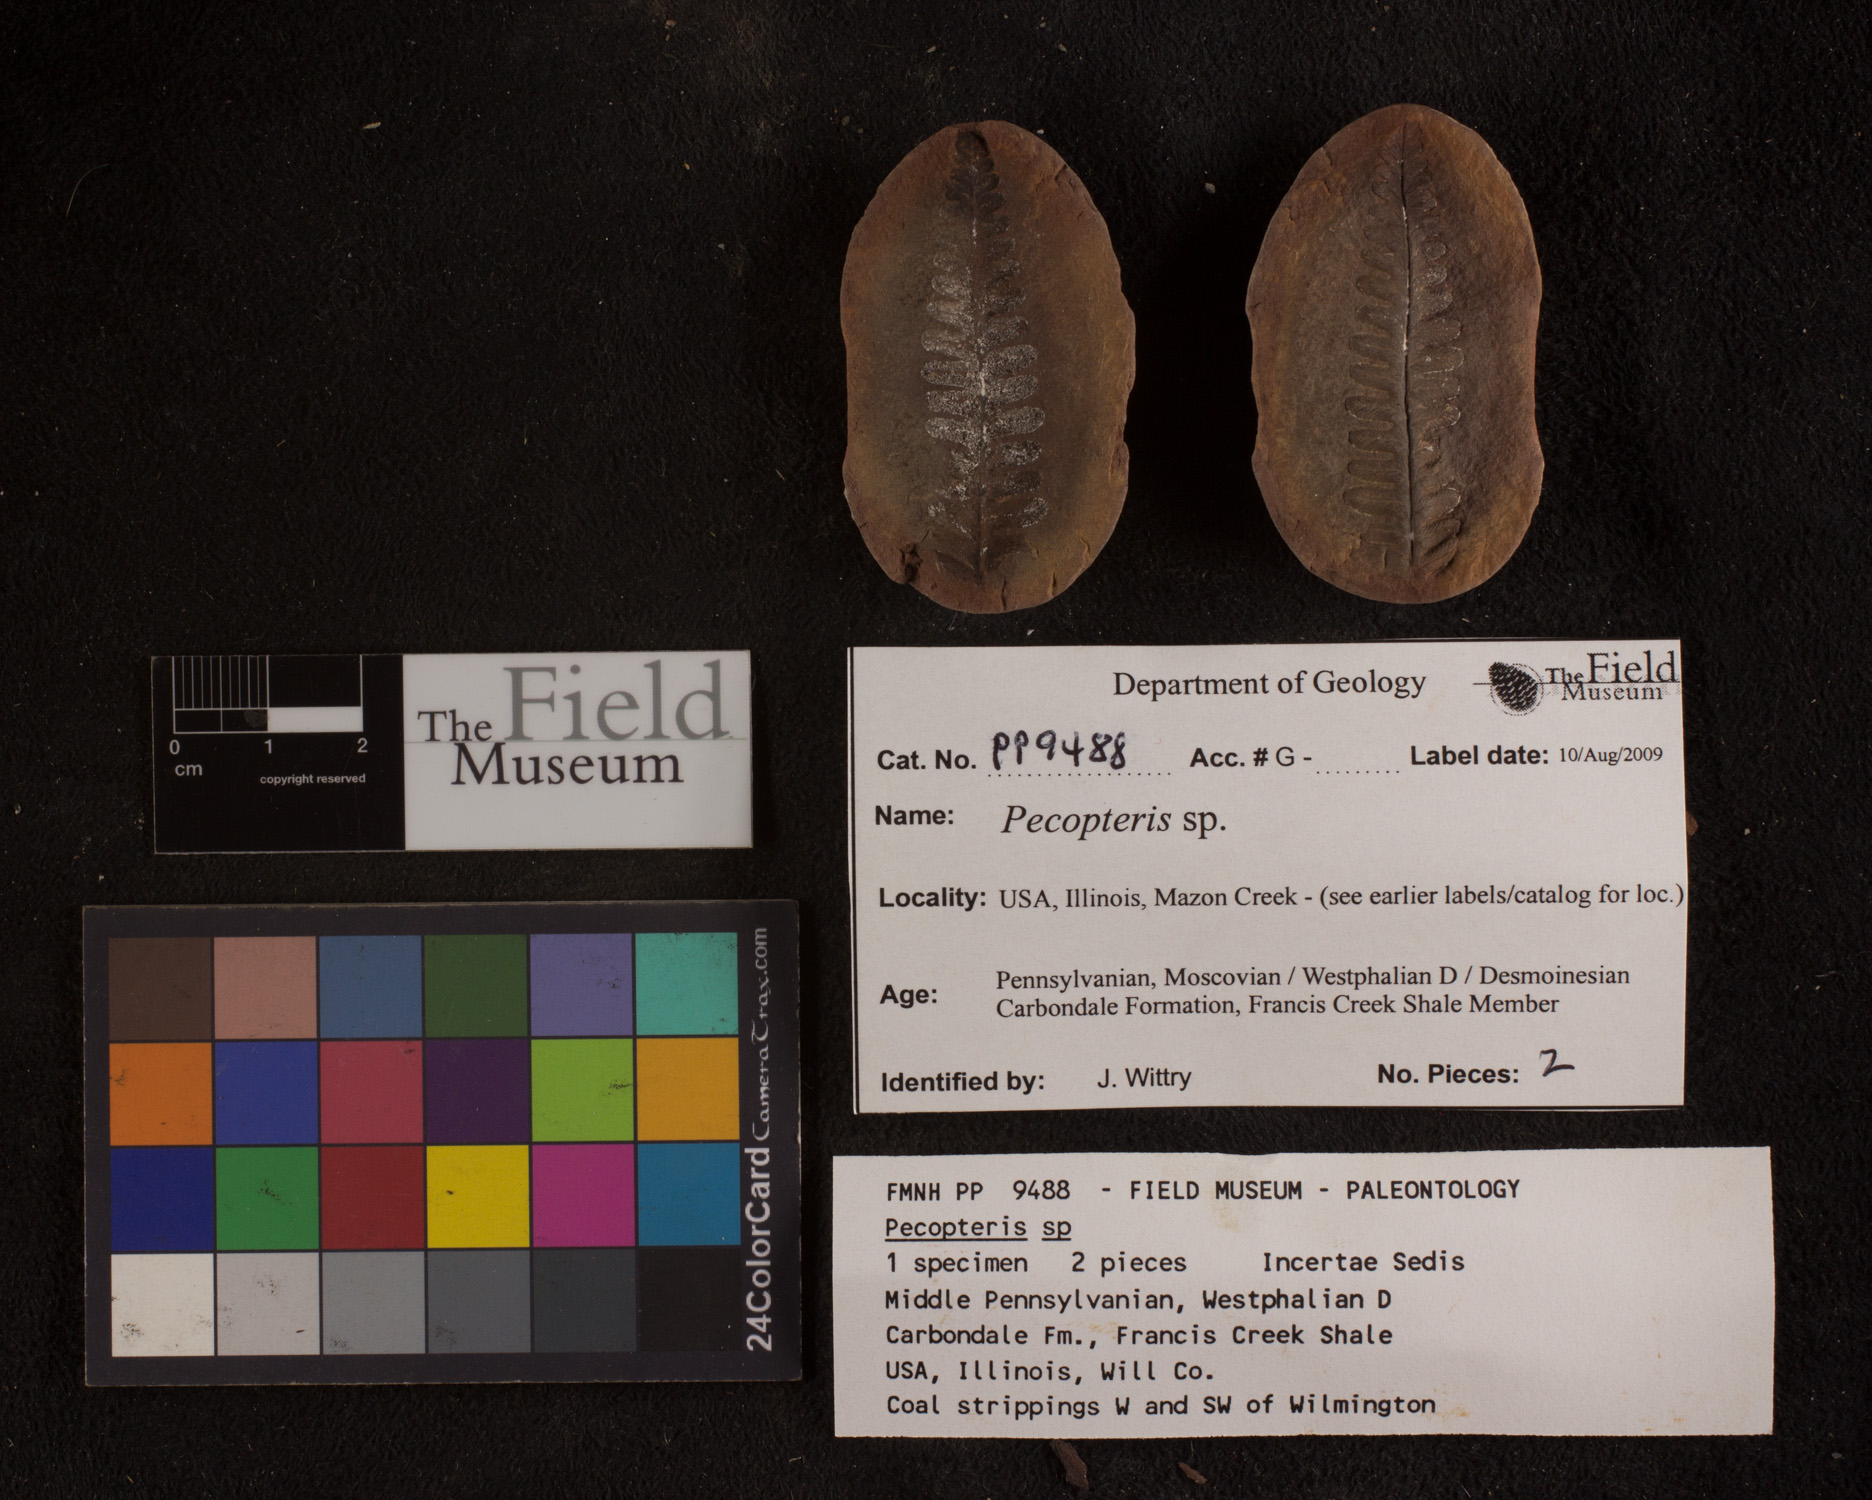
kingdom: Plantae
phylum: Tracheophyta
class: Polypodiopsida
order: Marattiales
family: Asterothecaceae
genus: Pecopteris
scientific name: Pecopteris
